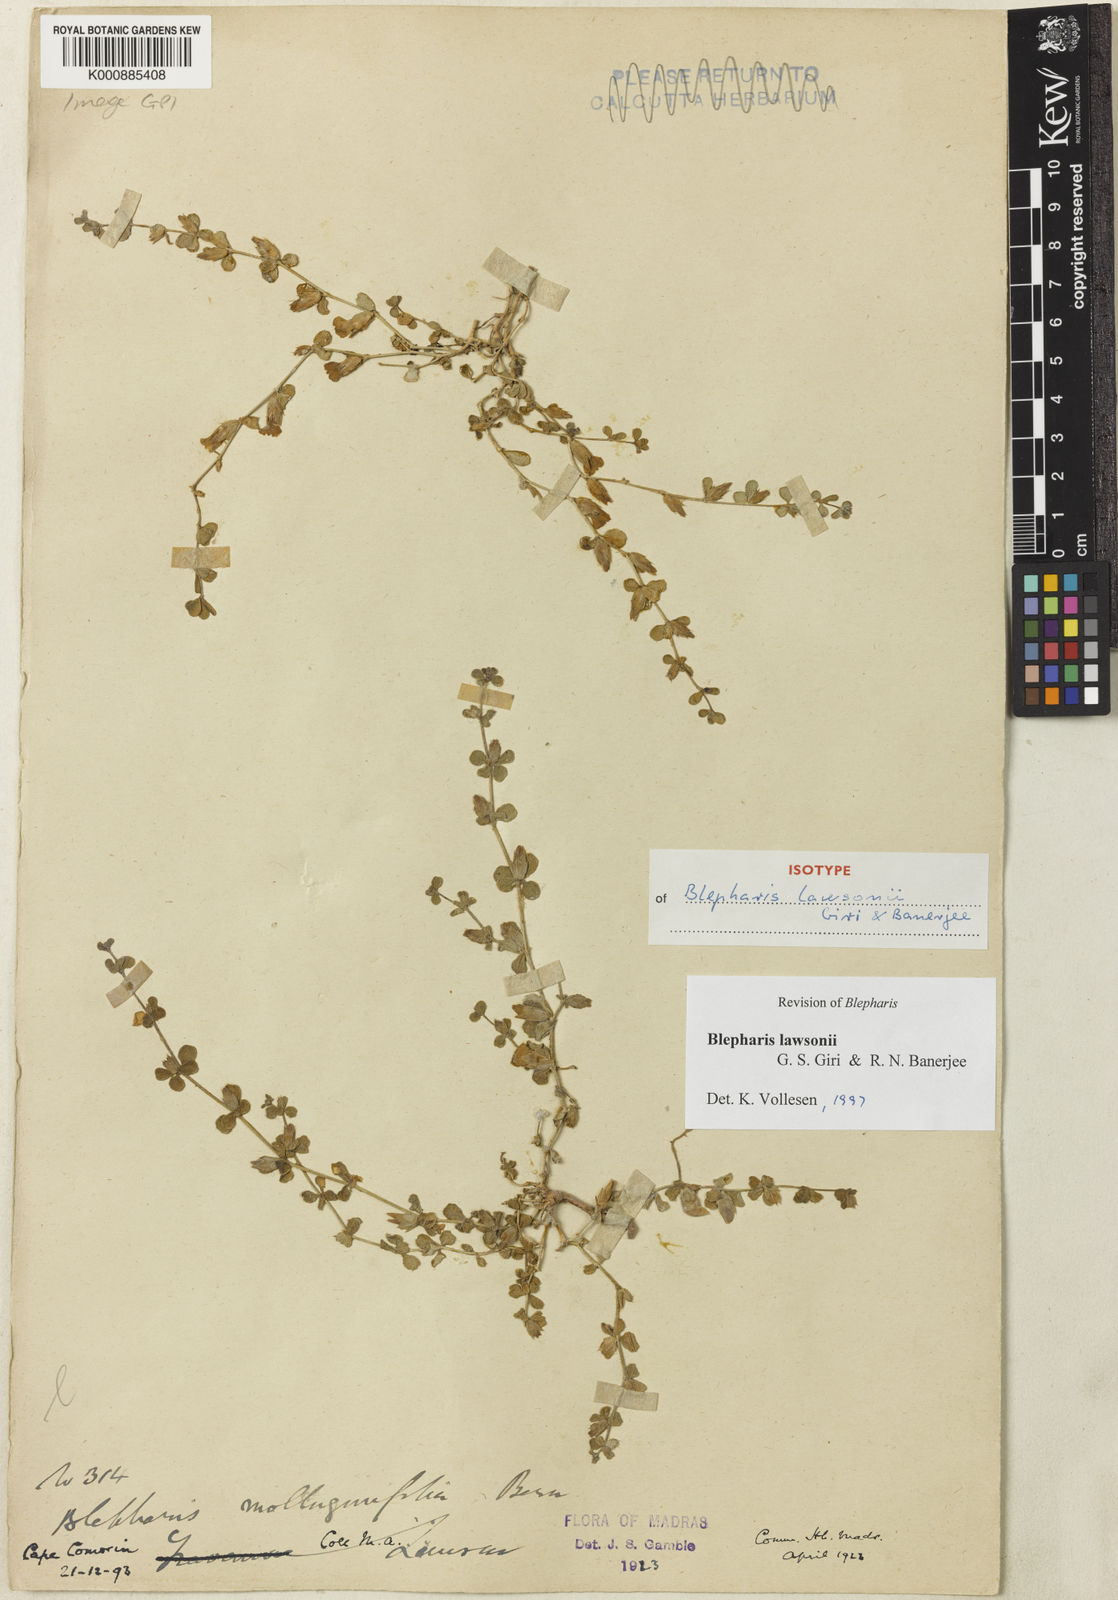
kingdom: Plantae
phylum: Tracheophyta
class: Magnoliopsida
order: Lamiales
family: Acanthaceae
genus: Blepharis
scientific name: Blepharis lawsonii
